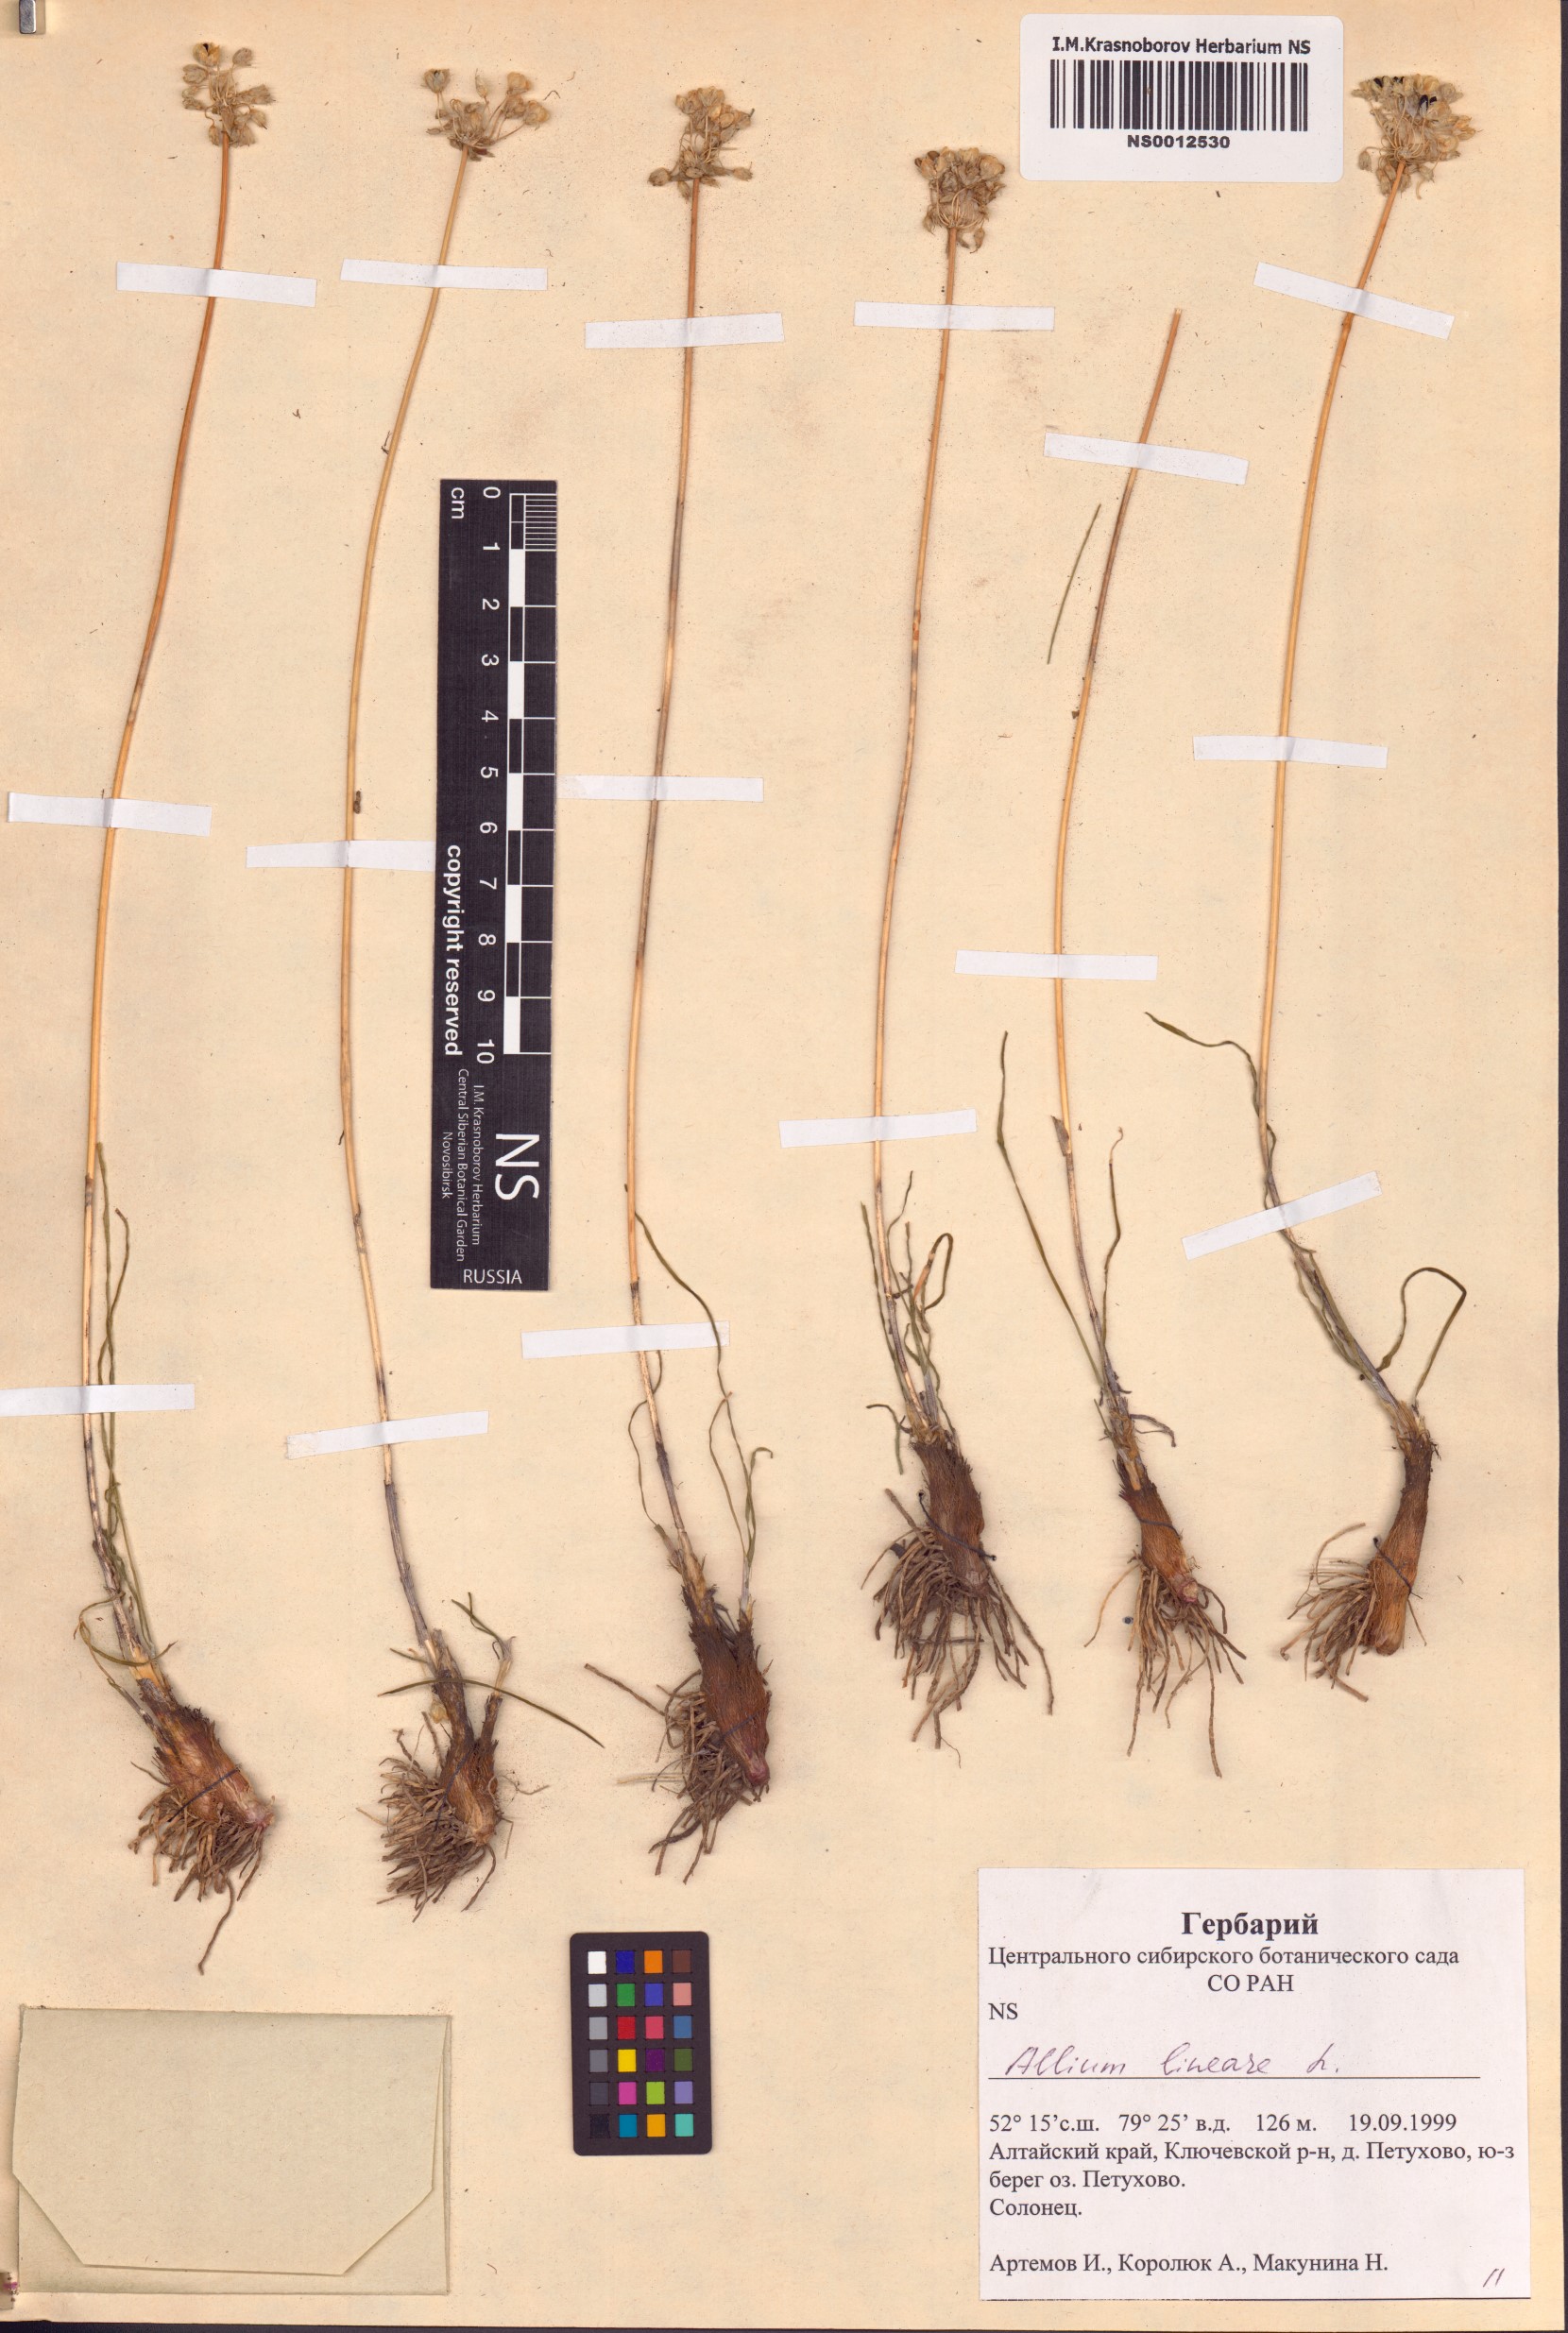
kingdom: Plantae
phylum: Tracheophyta
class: Liliopsida
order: Asparagales
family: Amaryllidaceae
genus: Allium
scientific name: Allium lineare
